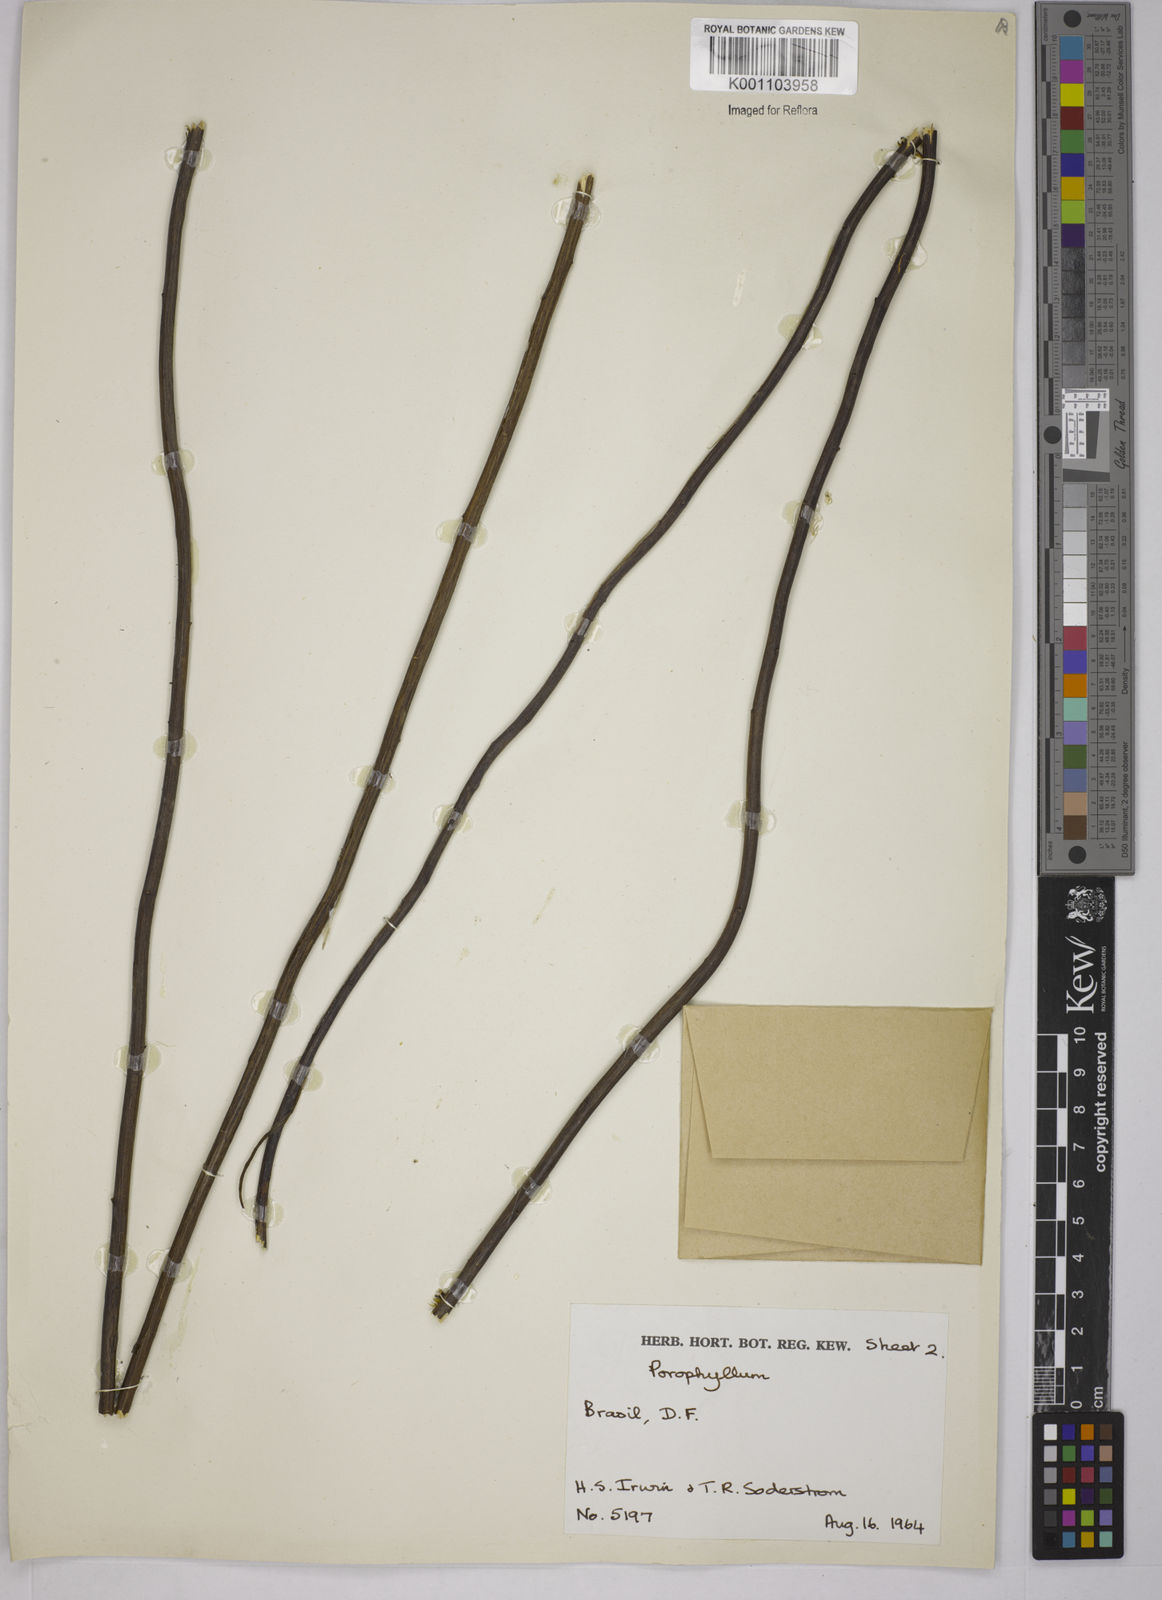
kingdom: Plantae
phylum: Tracheophyta
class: Magnoliopsida
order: Asterales
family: Asteraceae
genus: Porophyllum
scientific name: Porophyllum
